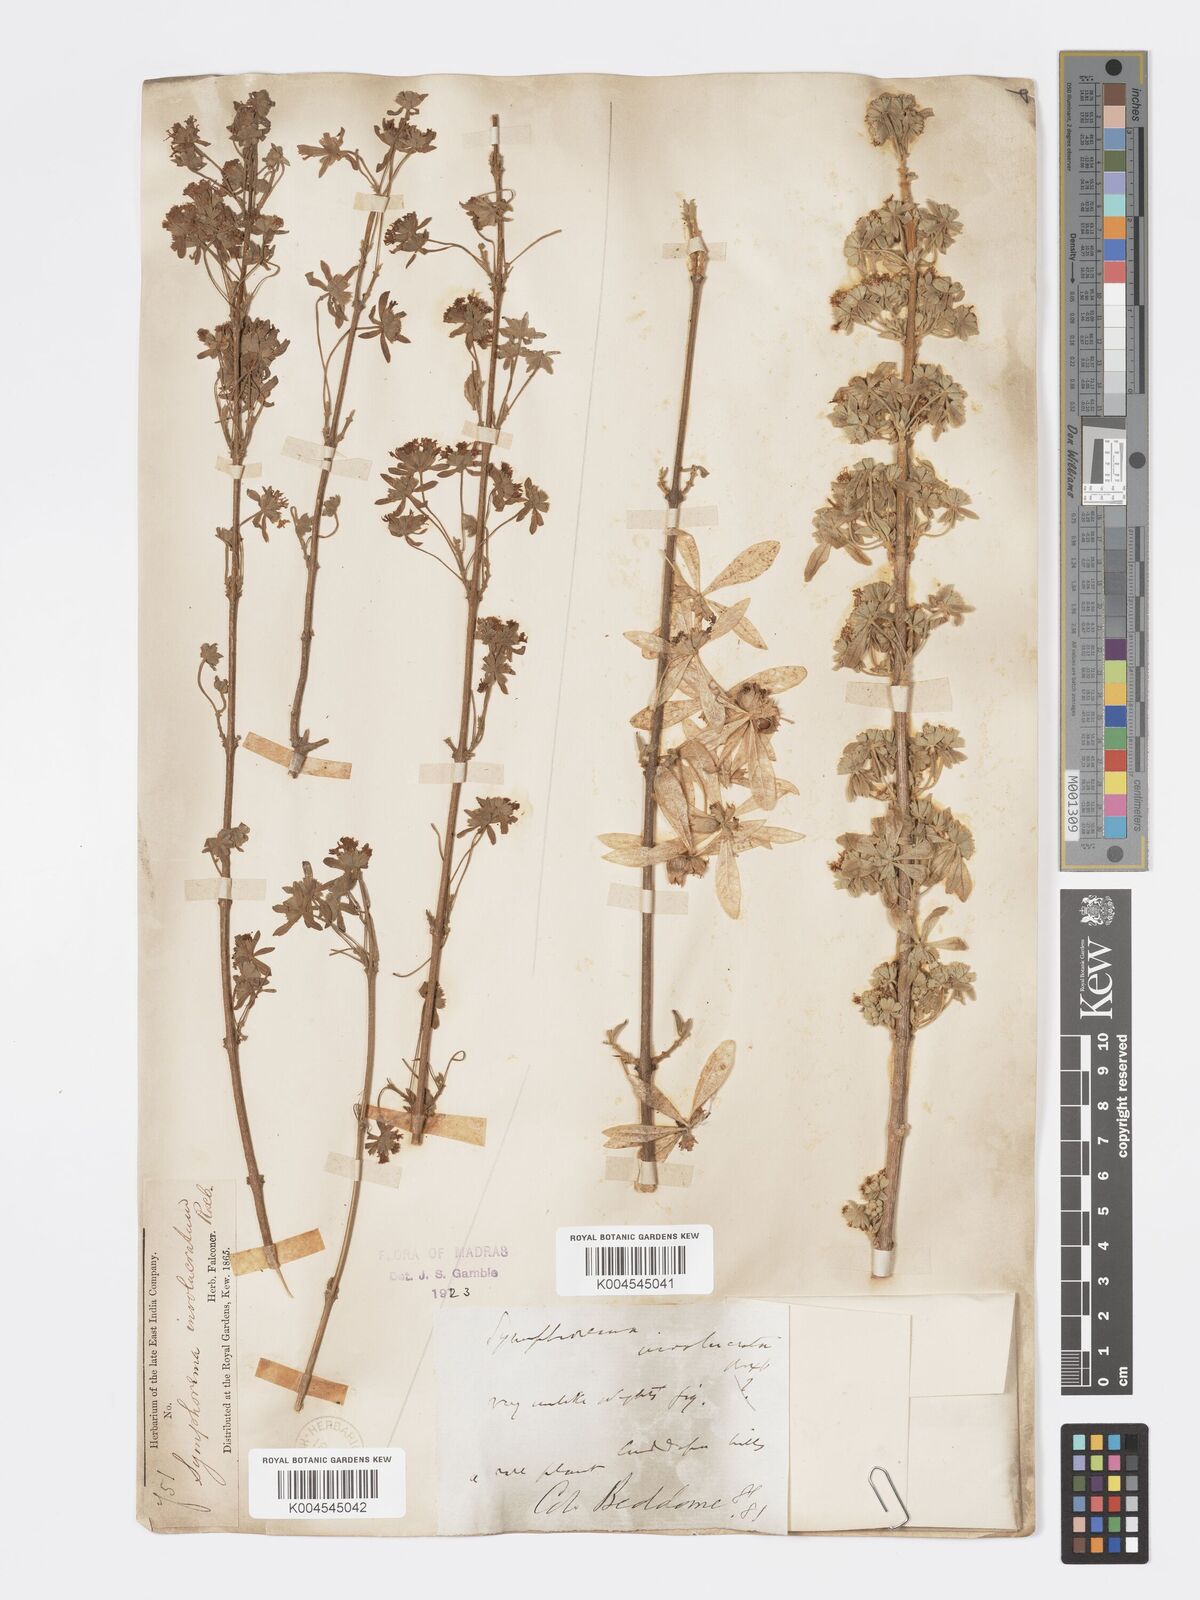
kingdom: Plantae
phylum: Tracheophyta
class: Magnoliopsida
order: Lamiales
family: Lamiaceae
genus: Symphorema
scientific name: Symphorema involucratum
